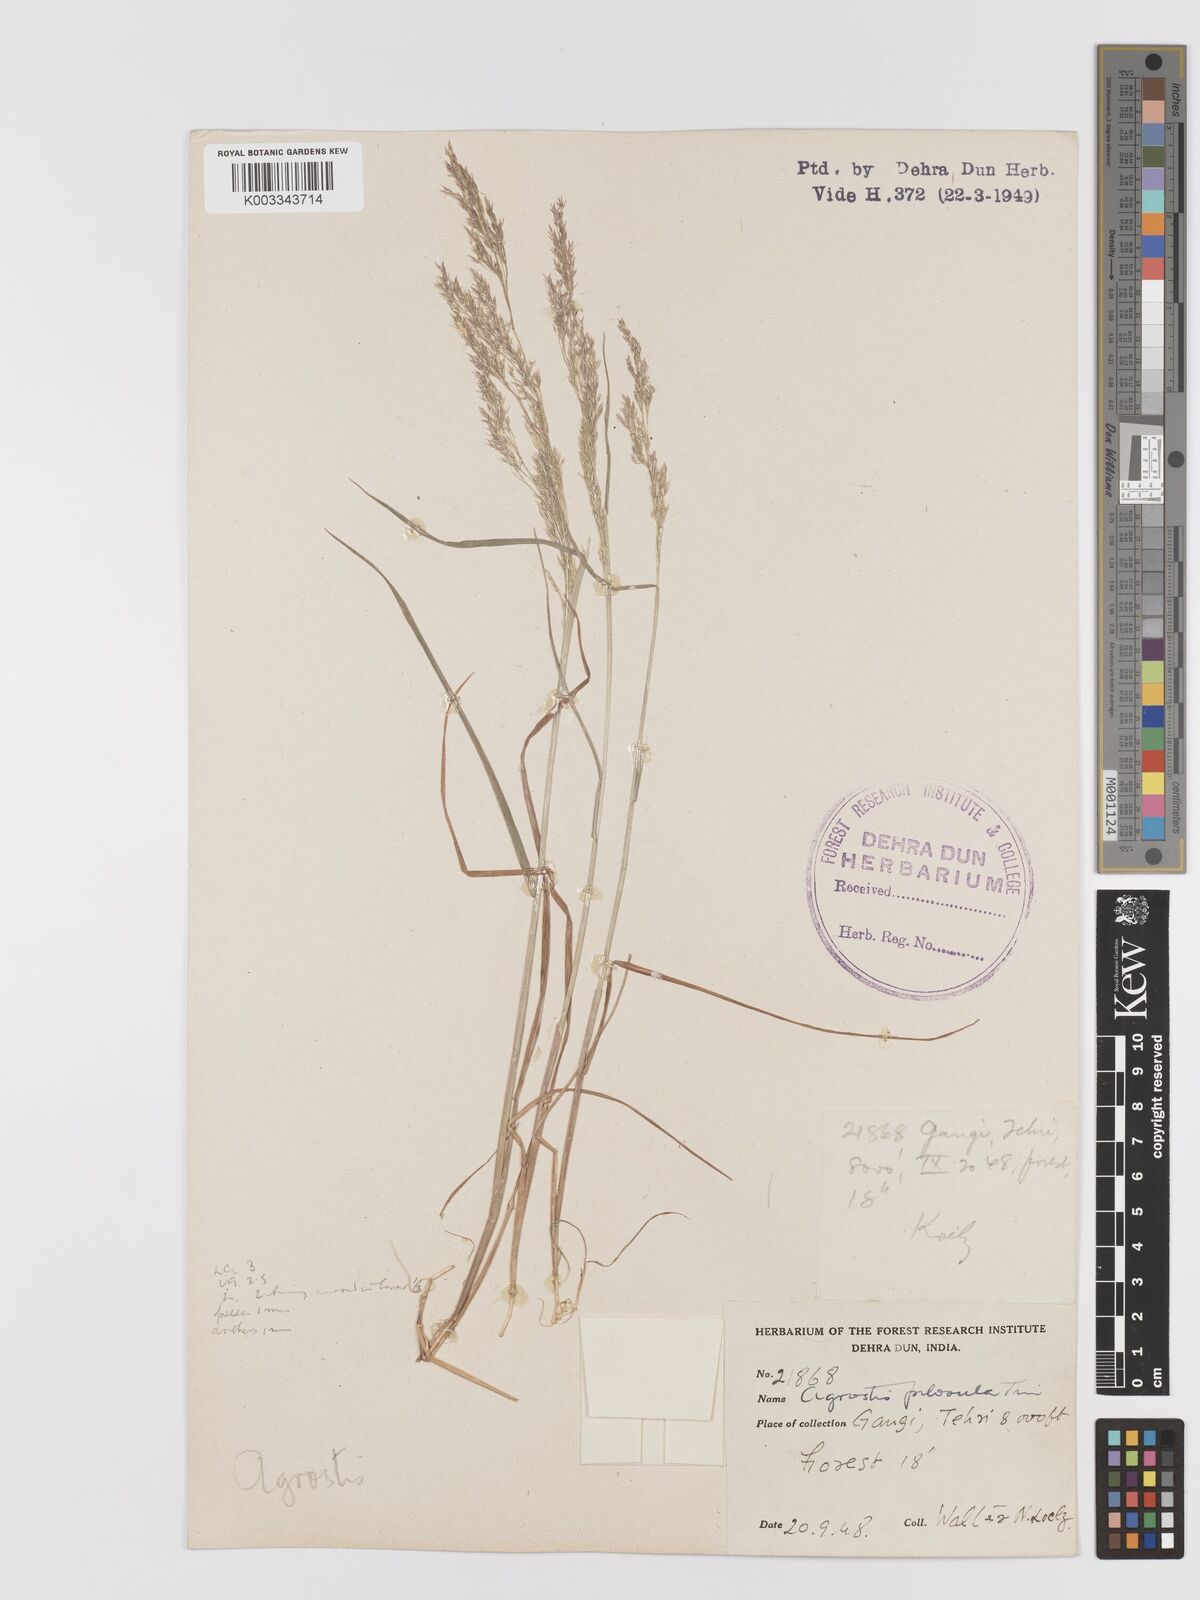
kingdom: Plantae
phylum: Tracheophyta
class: Liliopsida
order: Poales
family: Poaceae
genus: Agrostis
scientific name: Agrostis pilosula
